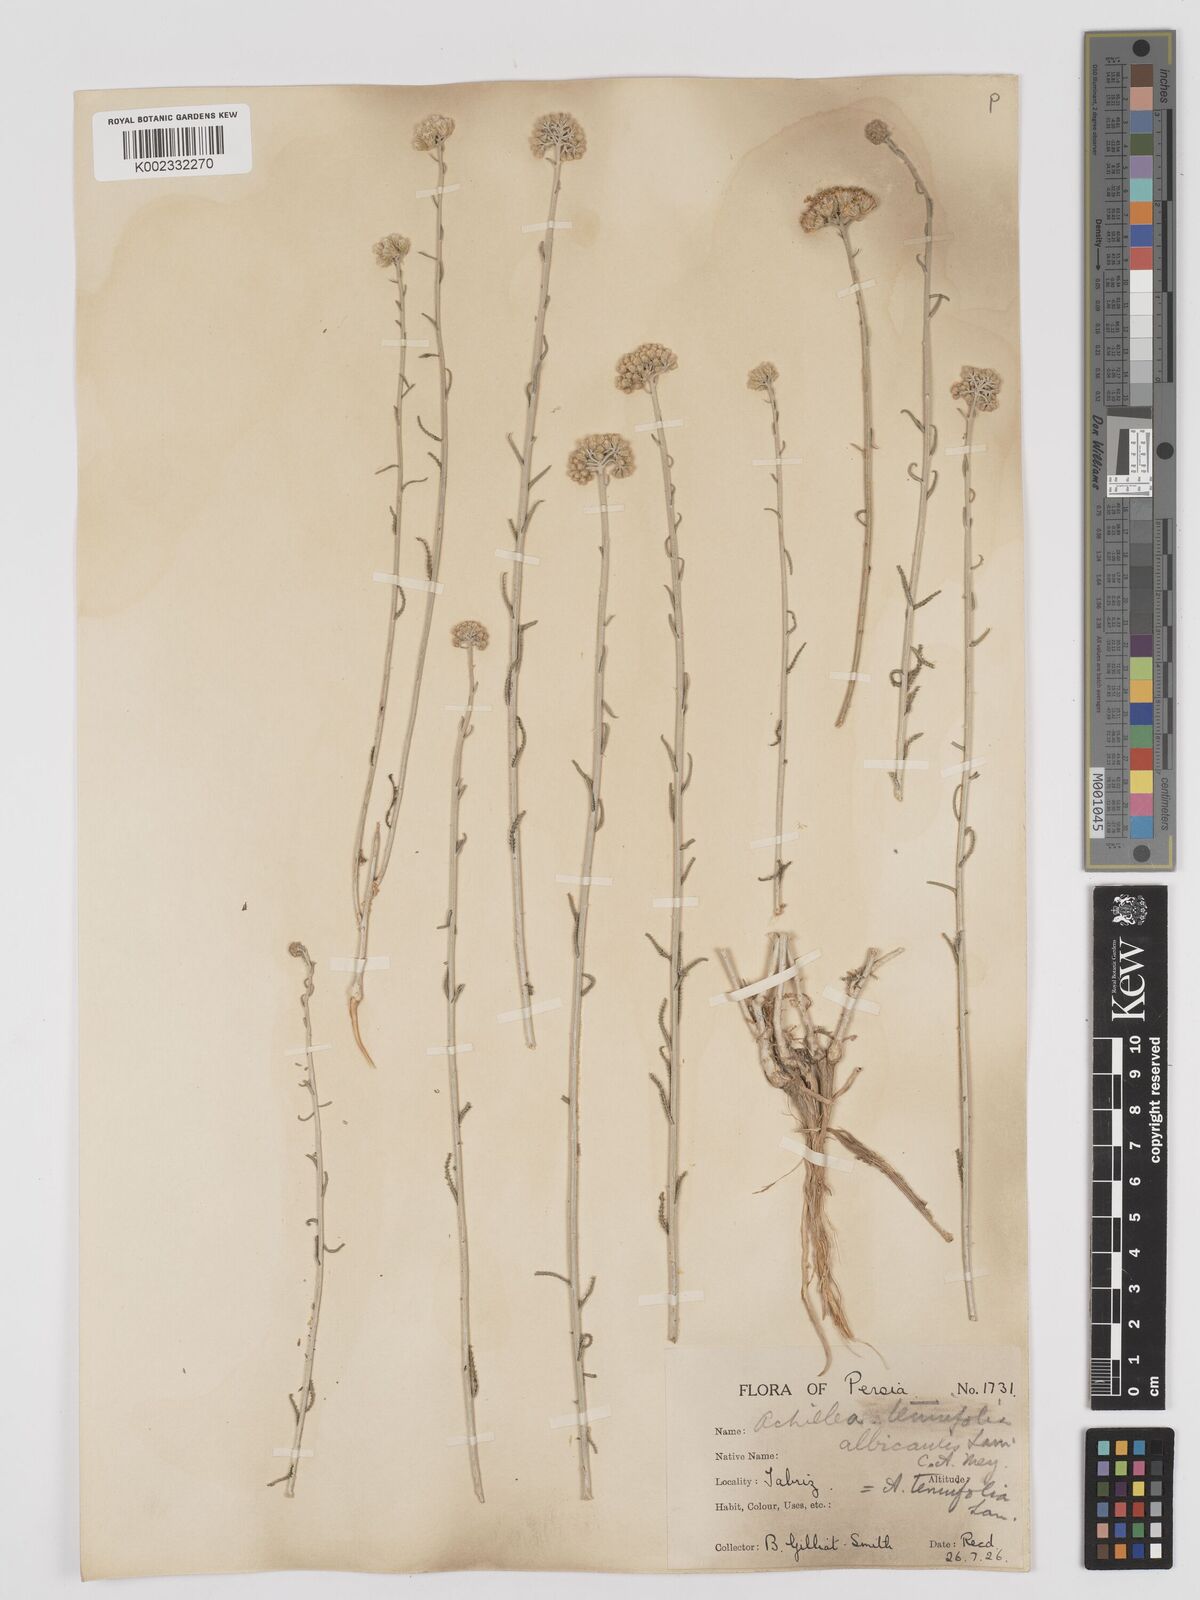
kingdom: Plantae
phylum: Tracheophyta
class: Magnoliopsida
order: Asterales
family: Asteraceae
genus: Achillea
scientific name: Achillea tenuifolia
